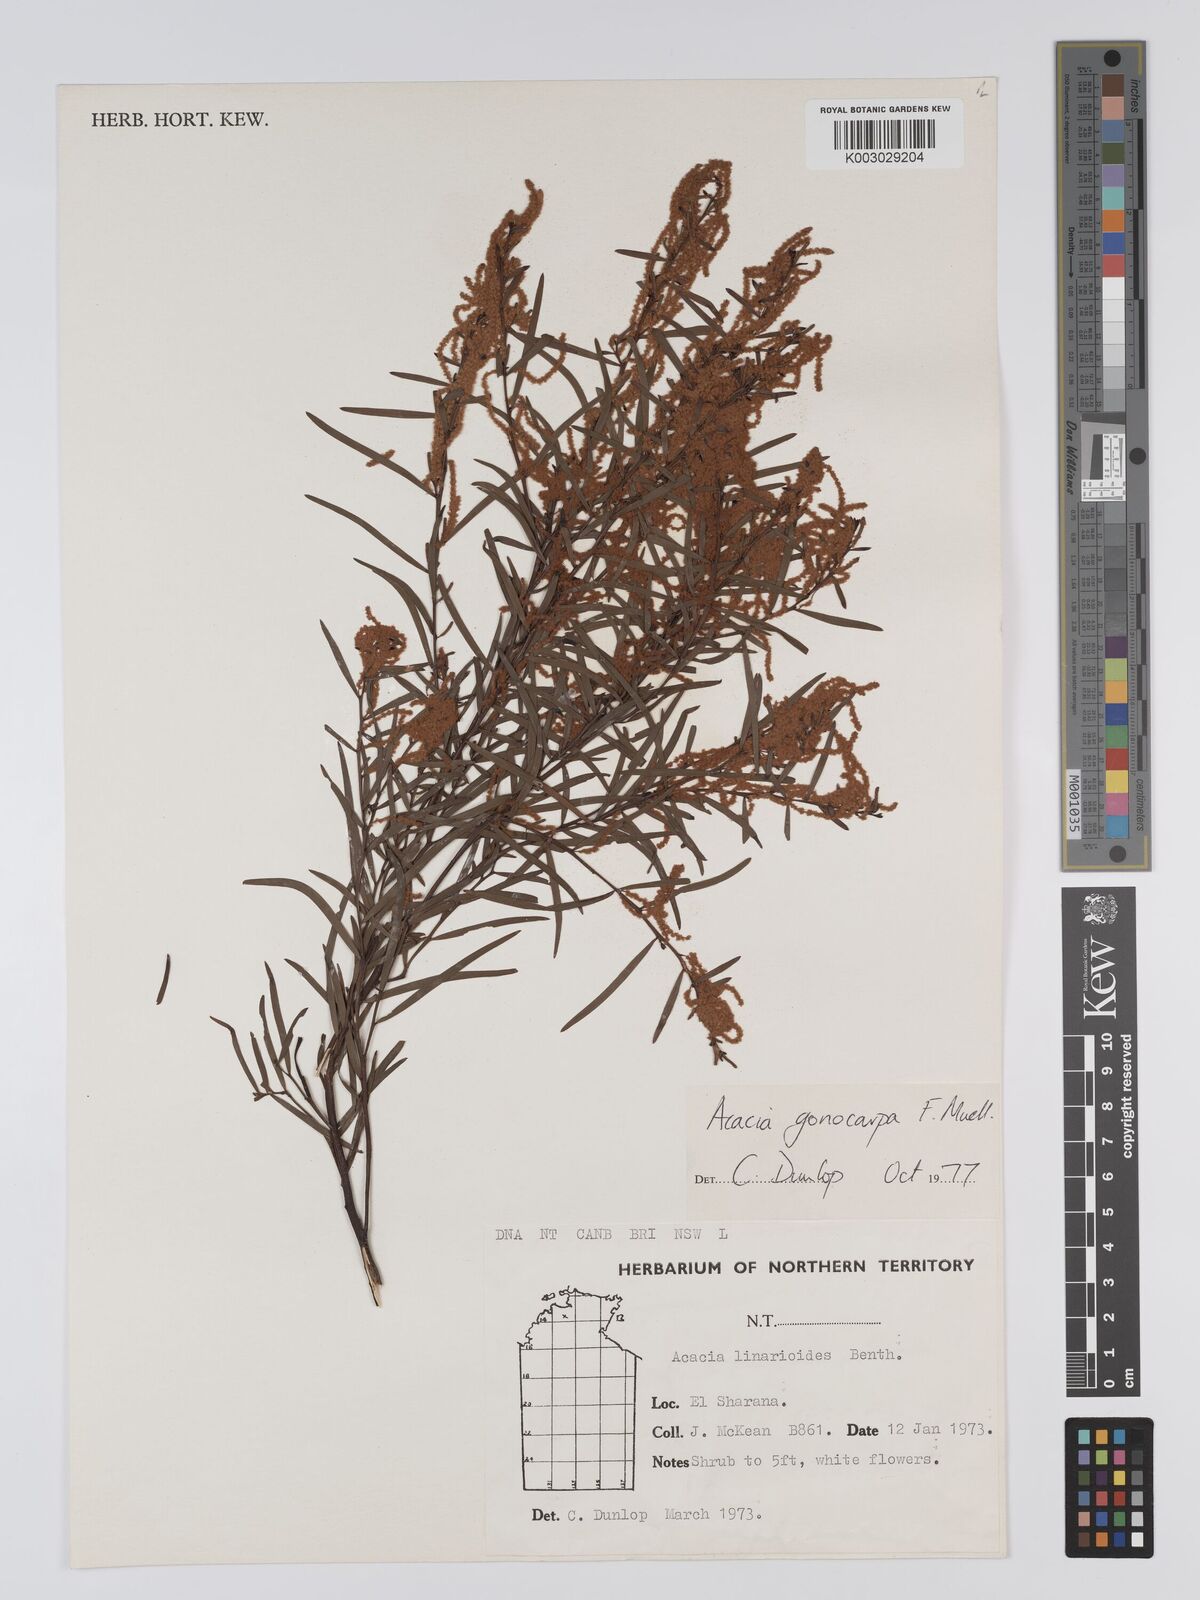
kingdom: Plantae
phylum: Tracheophyta
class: Magnoliopsida
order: Fabales
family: Fabaceae
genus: Acacia
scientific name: Acacia gonocarpa
